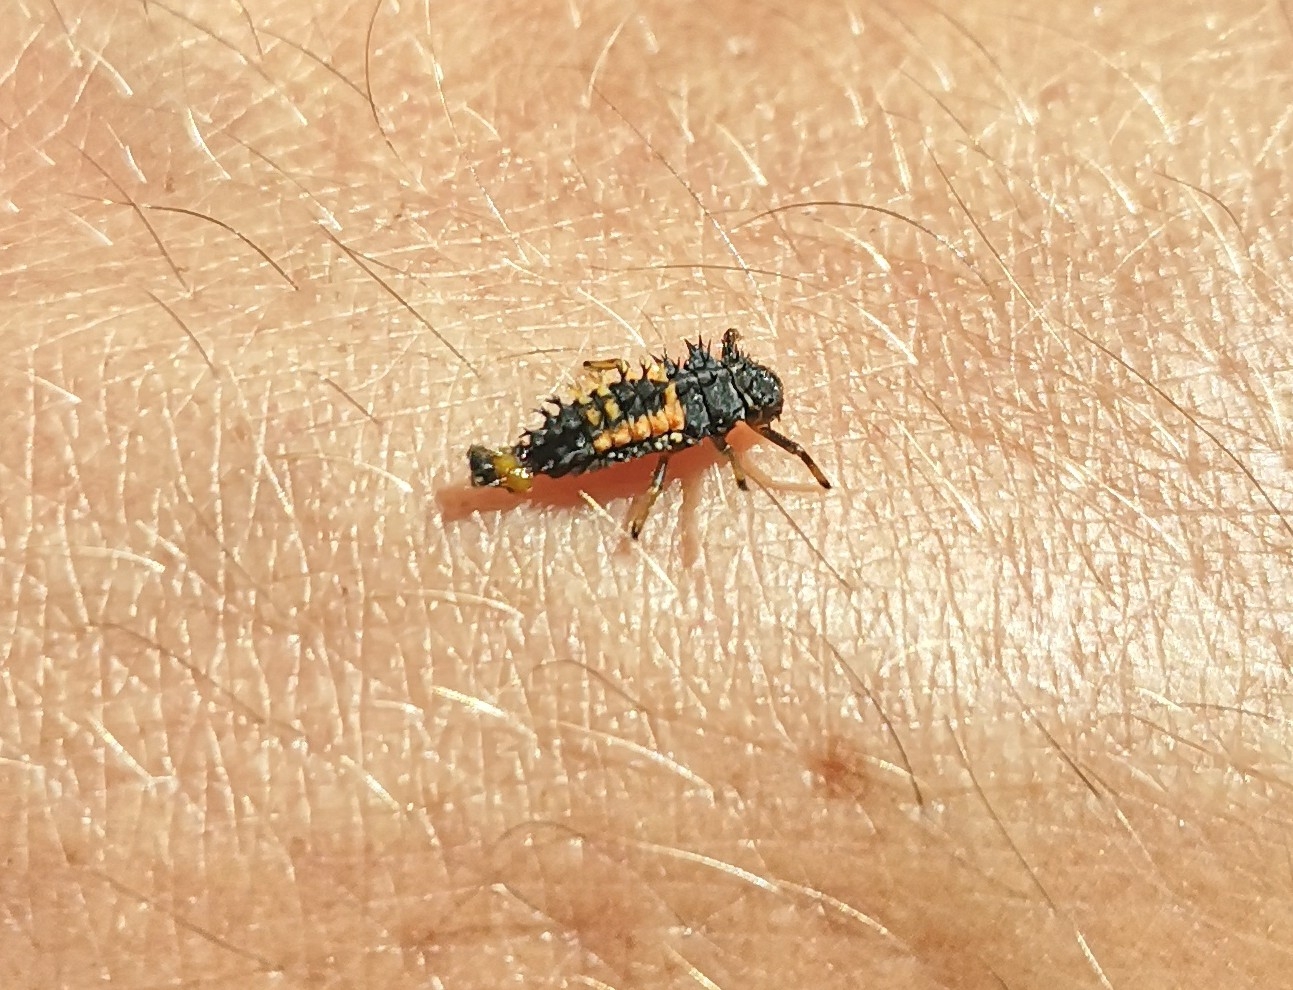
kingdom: Animalia
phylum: Arthropoda
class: Insecta
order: Coleoptera
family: Coccinellidae
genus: Harmonia
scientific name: Harmonia axyridis
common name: Harlekinmariehøne
